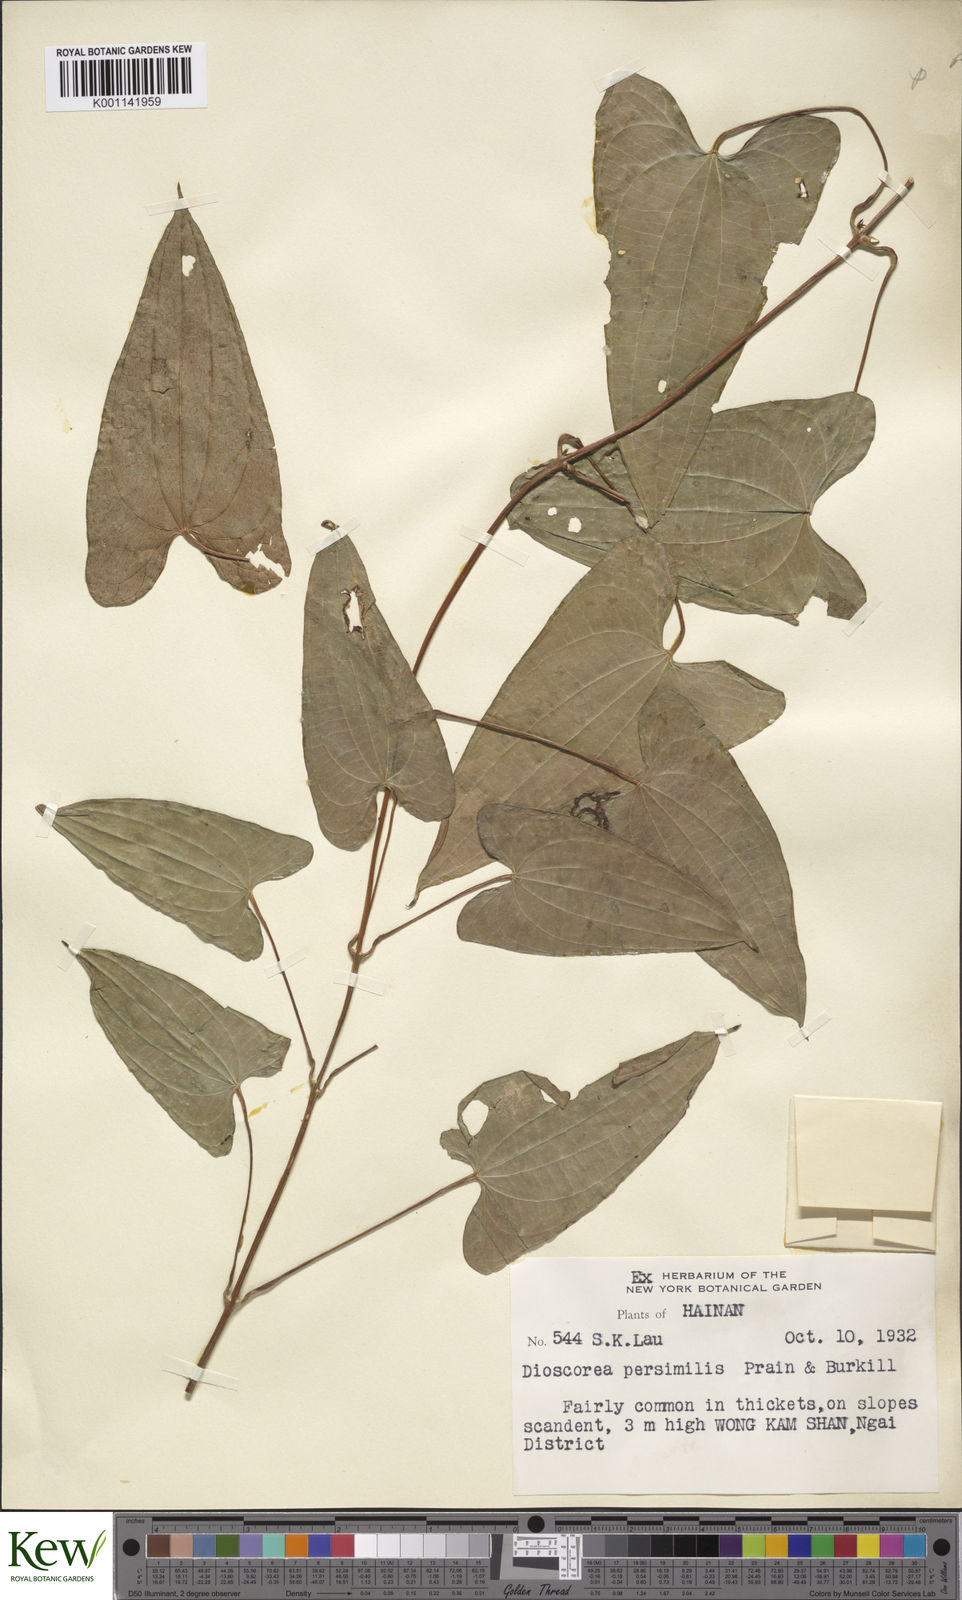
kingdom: Plantae
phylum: Tracheophyta
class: Liliopsida
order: Dioscoreales
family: Dioscoreaceae
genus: Dioscorea
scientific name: Dioscorea hamiltonii
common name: Mountain yam
